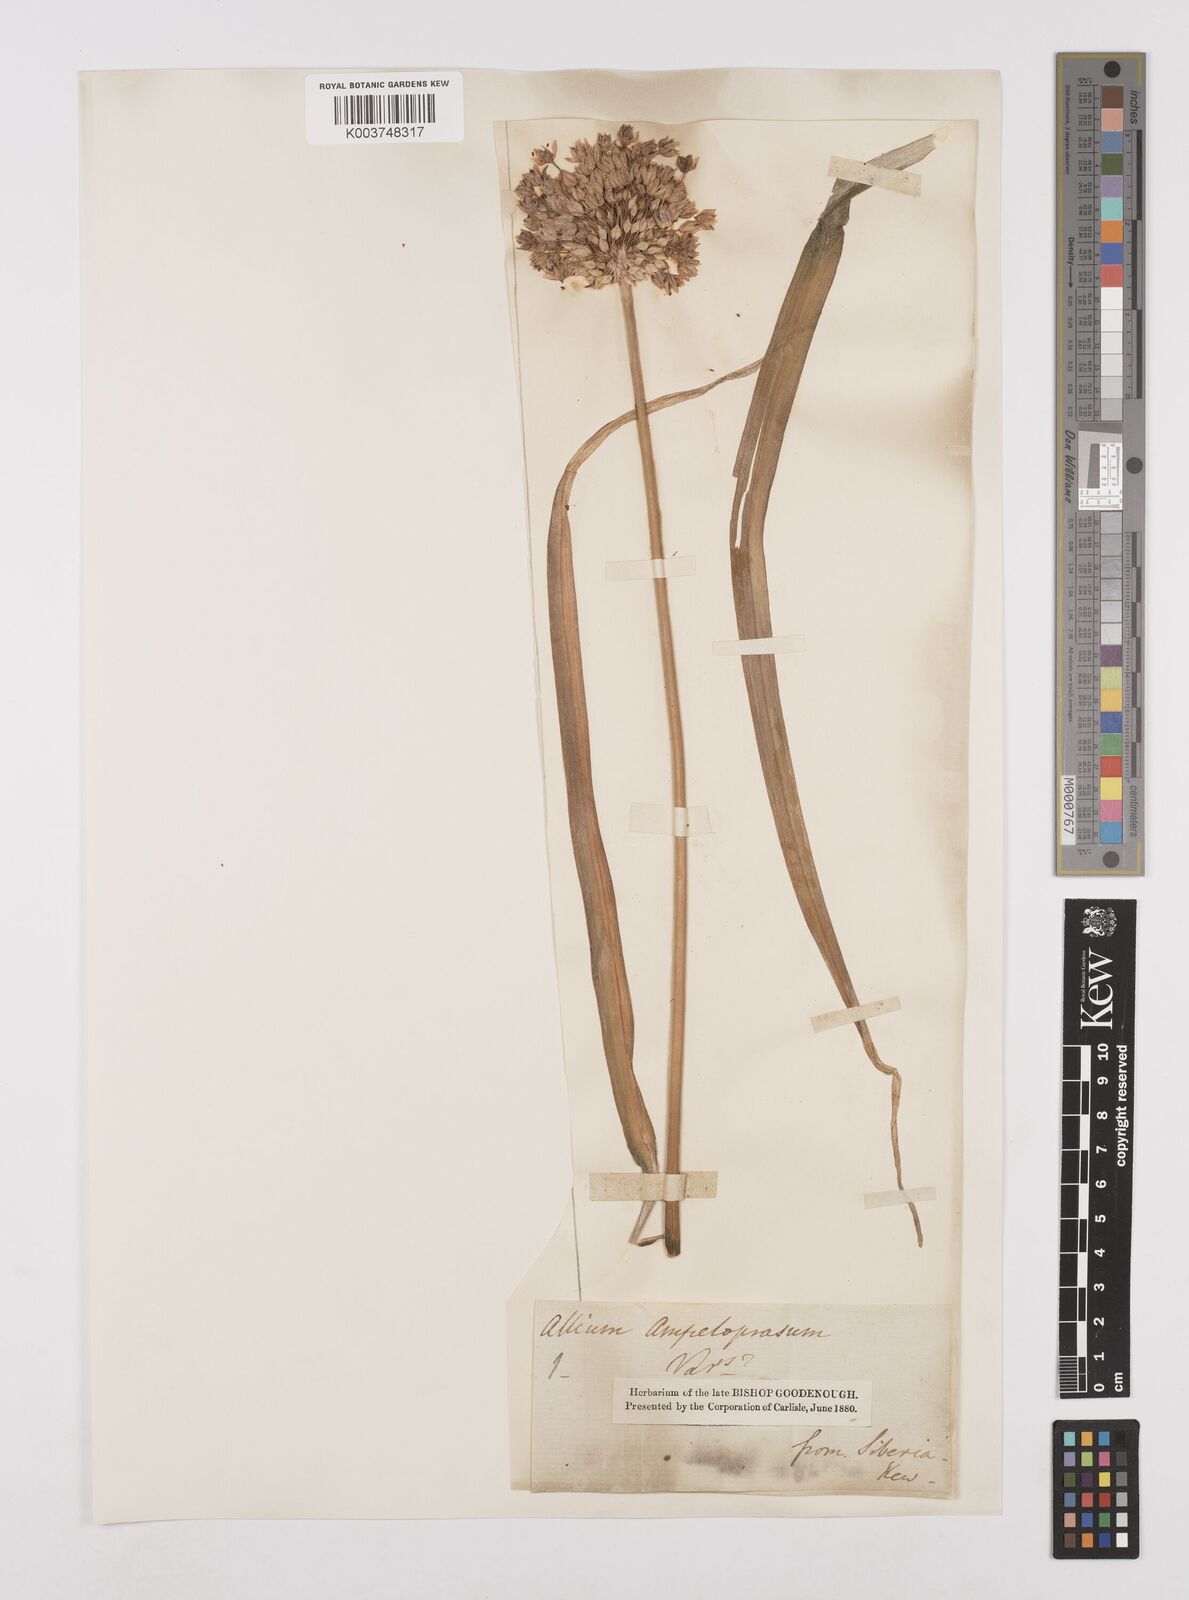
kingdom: Plantae
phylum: Tracheophyta
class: Liliopsida
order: Asparagales
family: Amaryllidaceae
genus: Allium
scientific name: Allium ampeloprasum
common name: Wild leek
